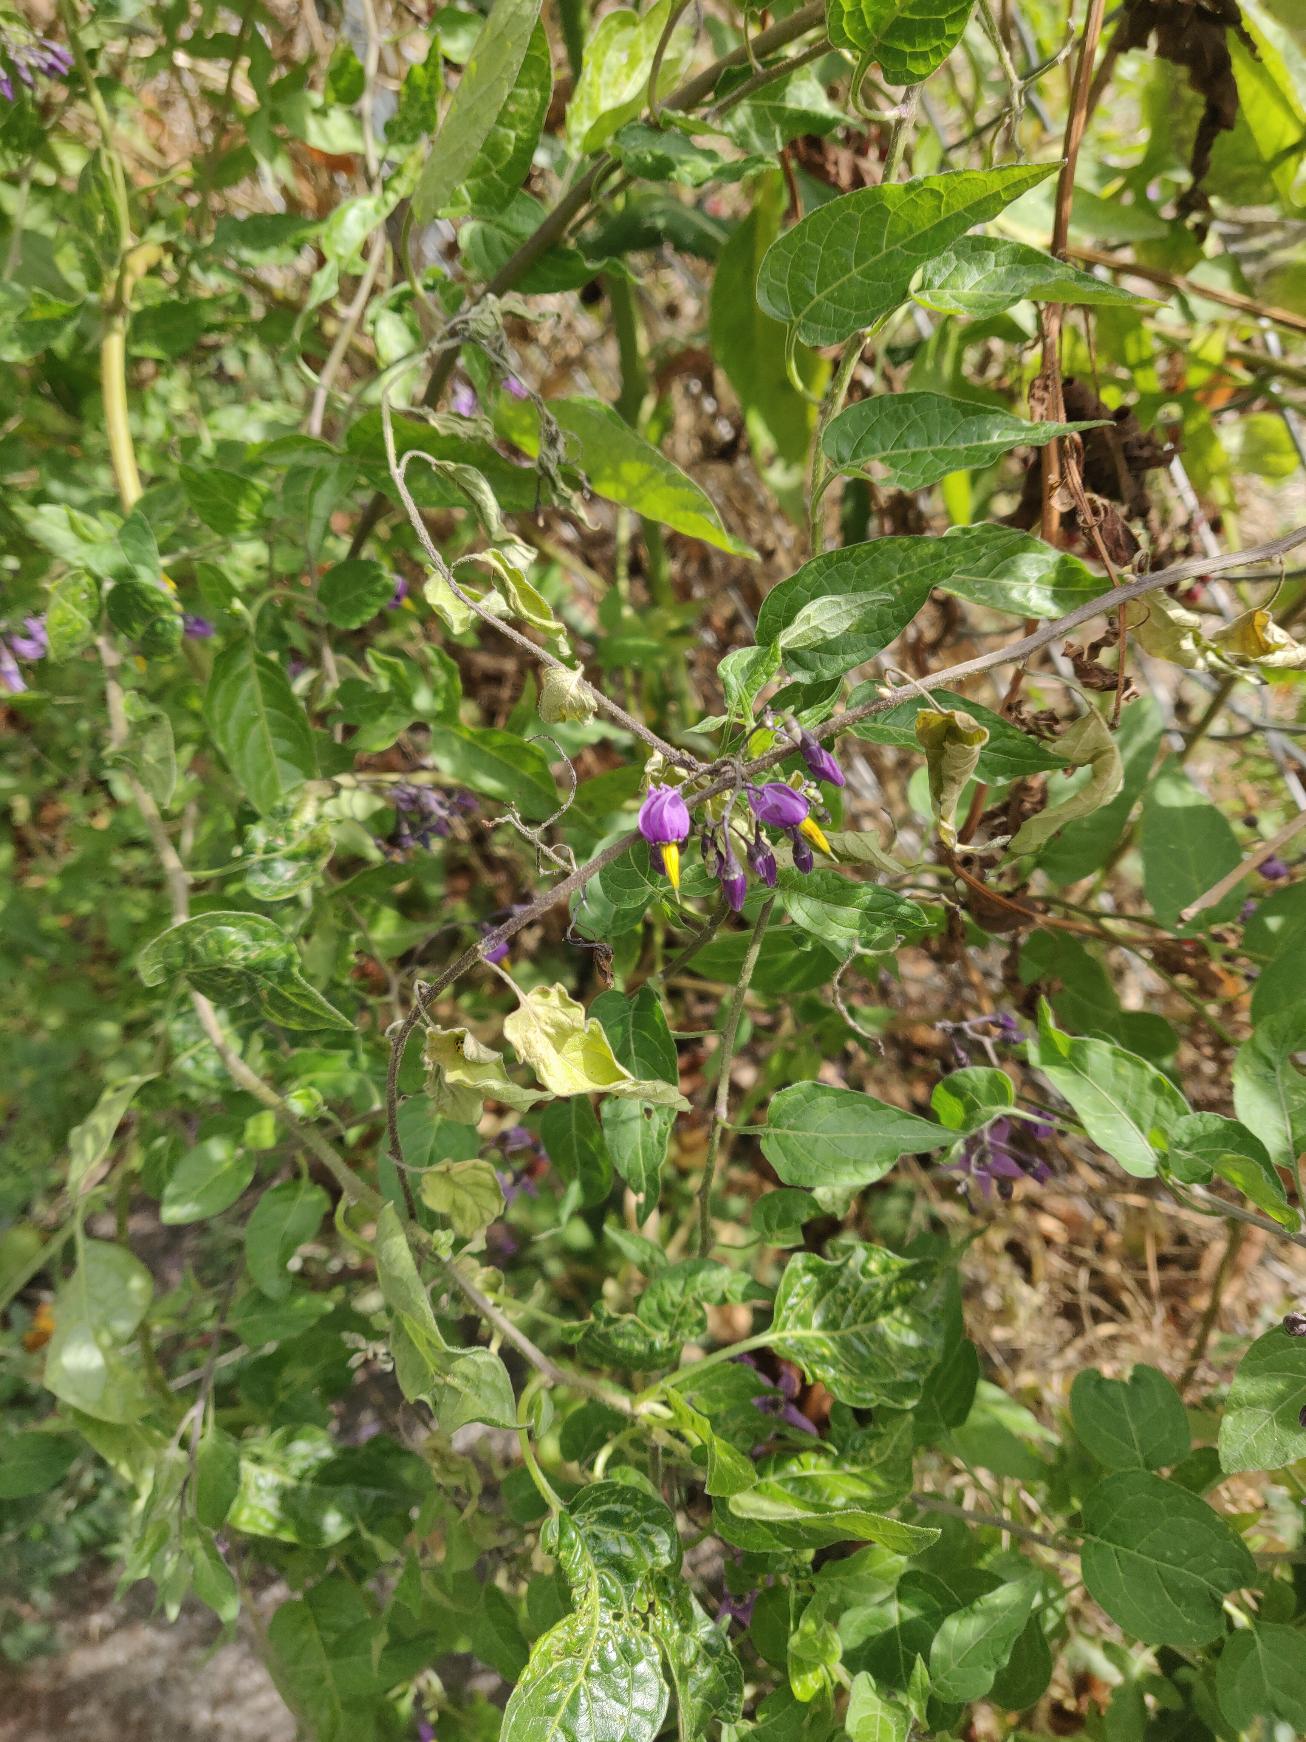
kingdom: Plantae
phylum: Tracheophyta
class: Magnoliopsida
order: Solanales
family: Solanaceae
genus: Solanum
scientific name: Solanum dulcamara
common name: Bittersød natskygge
